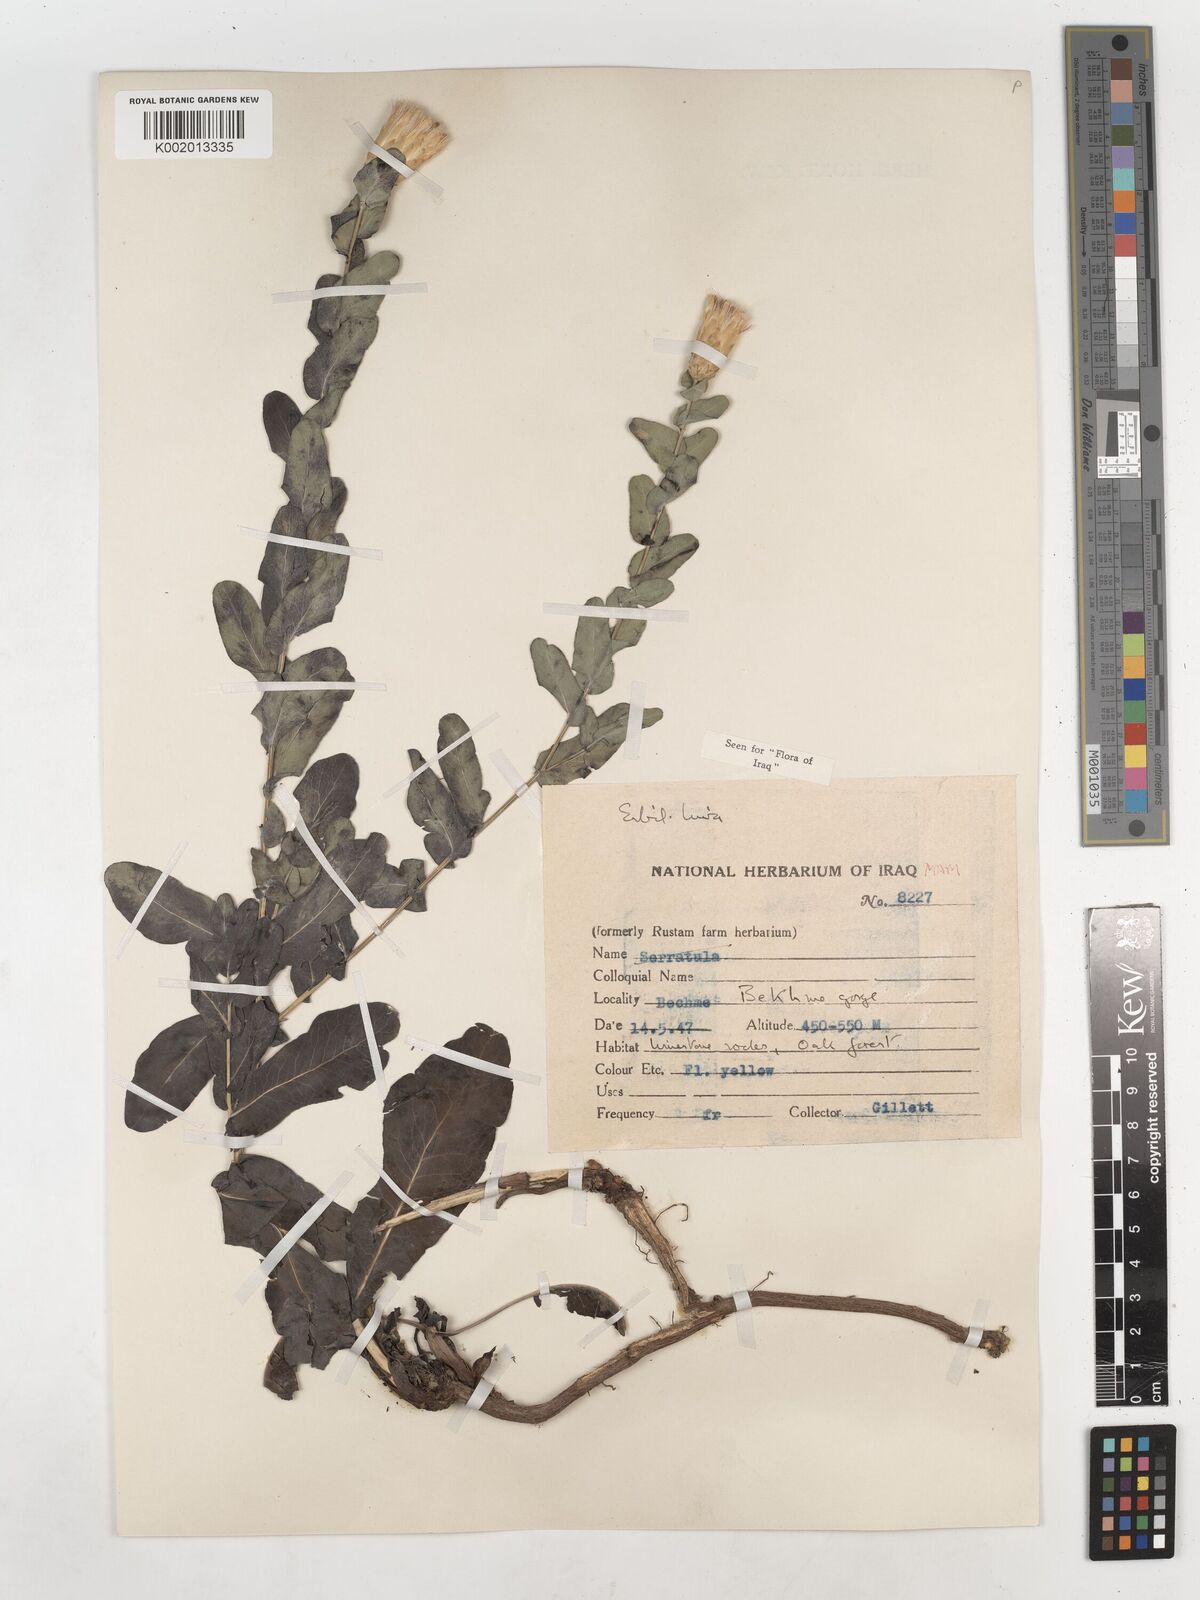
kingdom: Plantae
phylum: Tracheophyta
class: Magnoliopsida
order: Asterales
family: Asteraceae
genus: Klasea
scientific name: Klasea cerinthifolia
